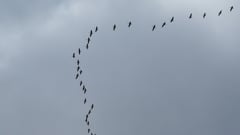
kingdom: Animalia
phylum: Chordata
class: Aves
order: Gruiformes
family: Gruidae
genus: Grus
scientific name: Grus grus
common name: Common crane
